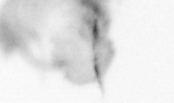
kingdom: Animalia
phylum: Arthropoda
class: Copepoda
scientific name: Copepoda
